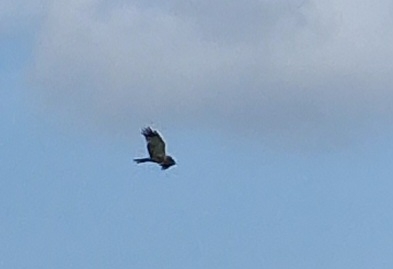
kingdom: Animalia
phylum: Chordata
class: Aves
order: Accipitriformes
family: Accipitridae
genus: Circus
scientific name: Circus aeruginosus
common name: Rørhøg
